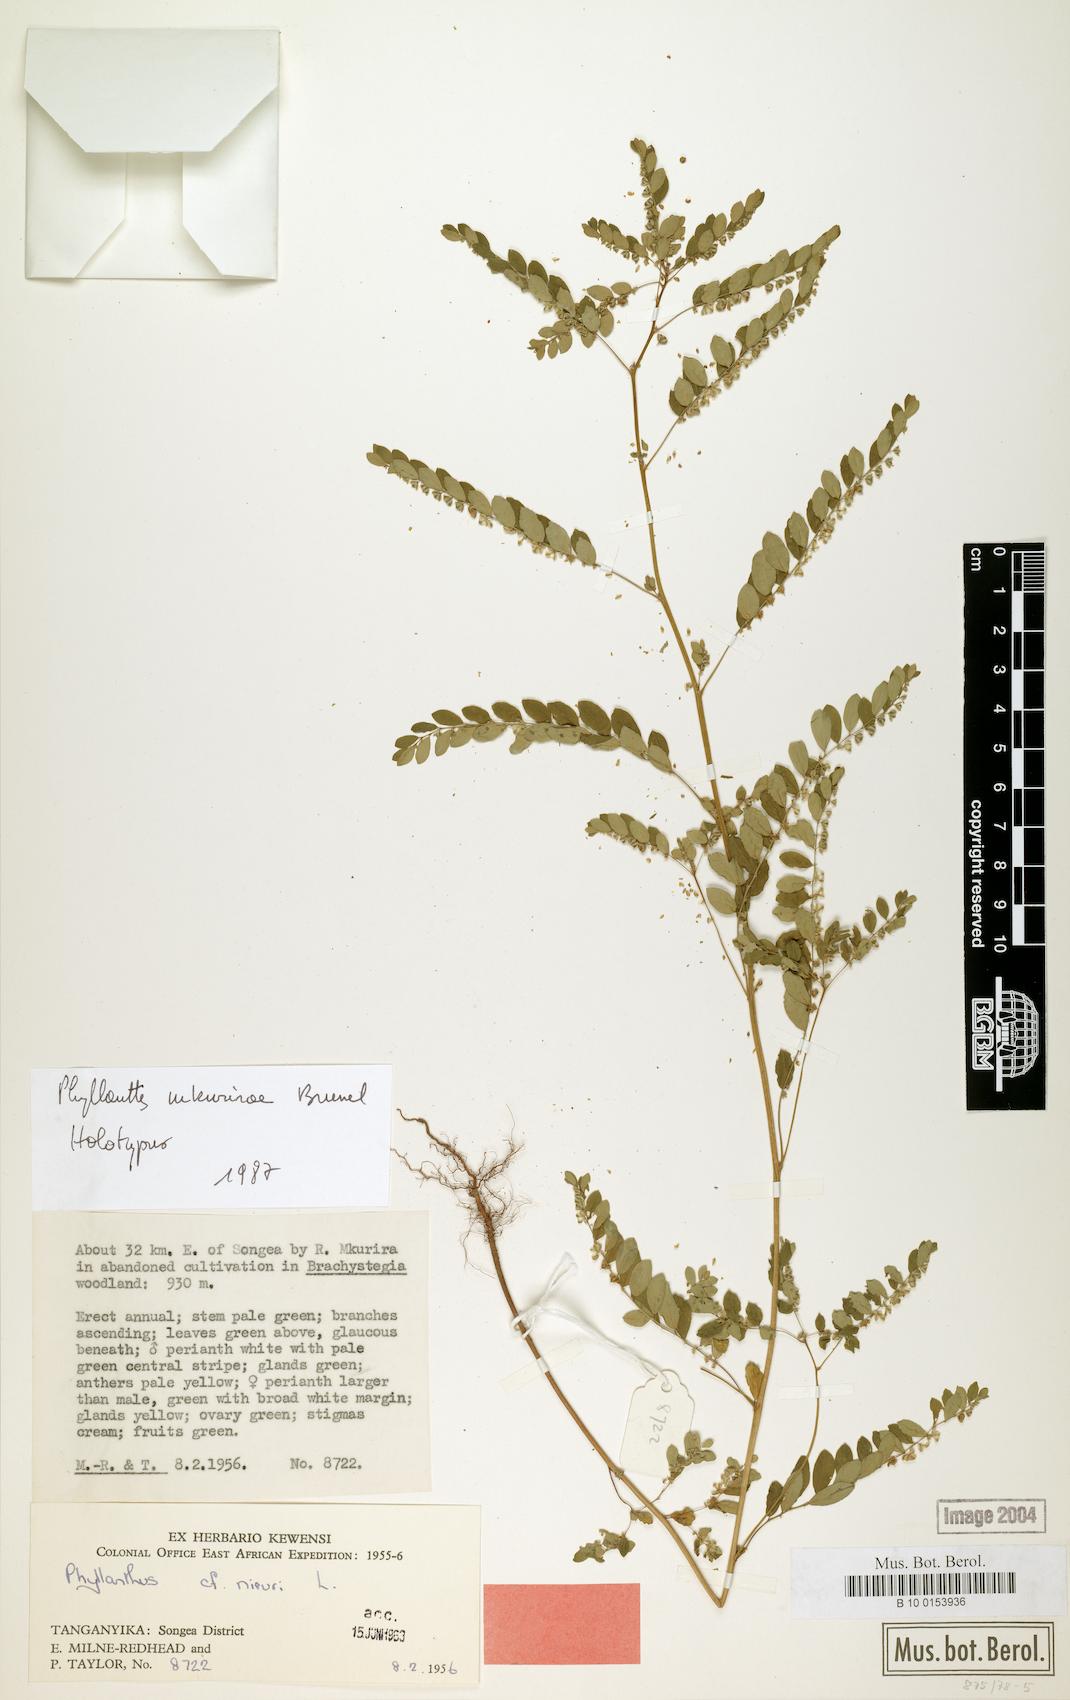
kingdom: Plantae
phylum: Tracheophyta
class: Magnoliopsida
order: Malpighiales
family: Phyllanthaceae
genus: Phyllanthus
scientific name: Phyllanthus mkurirae
